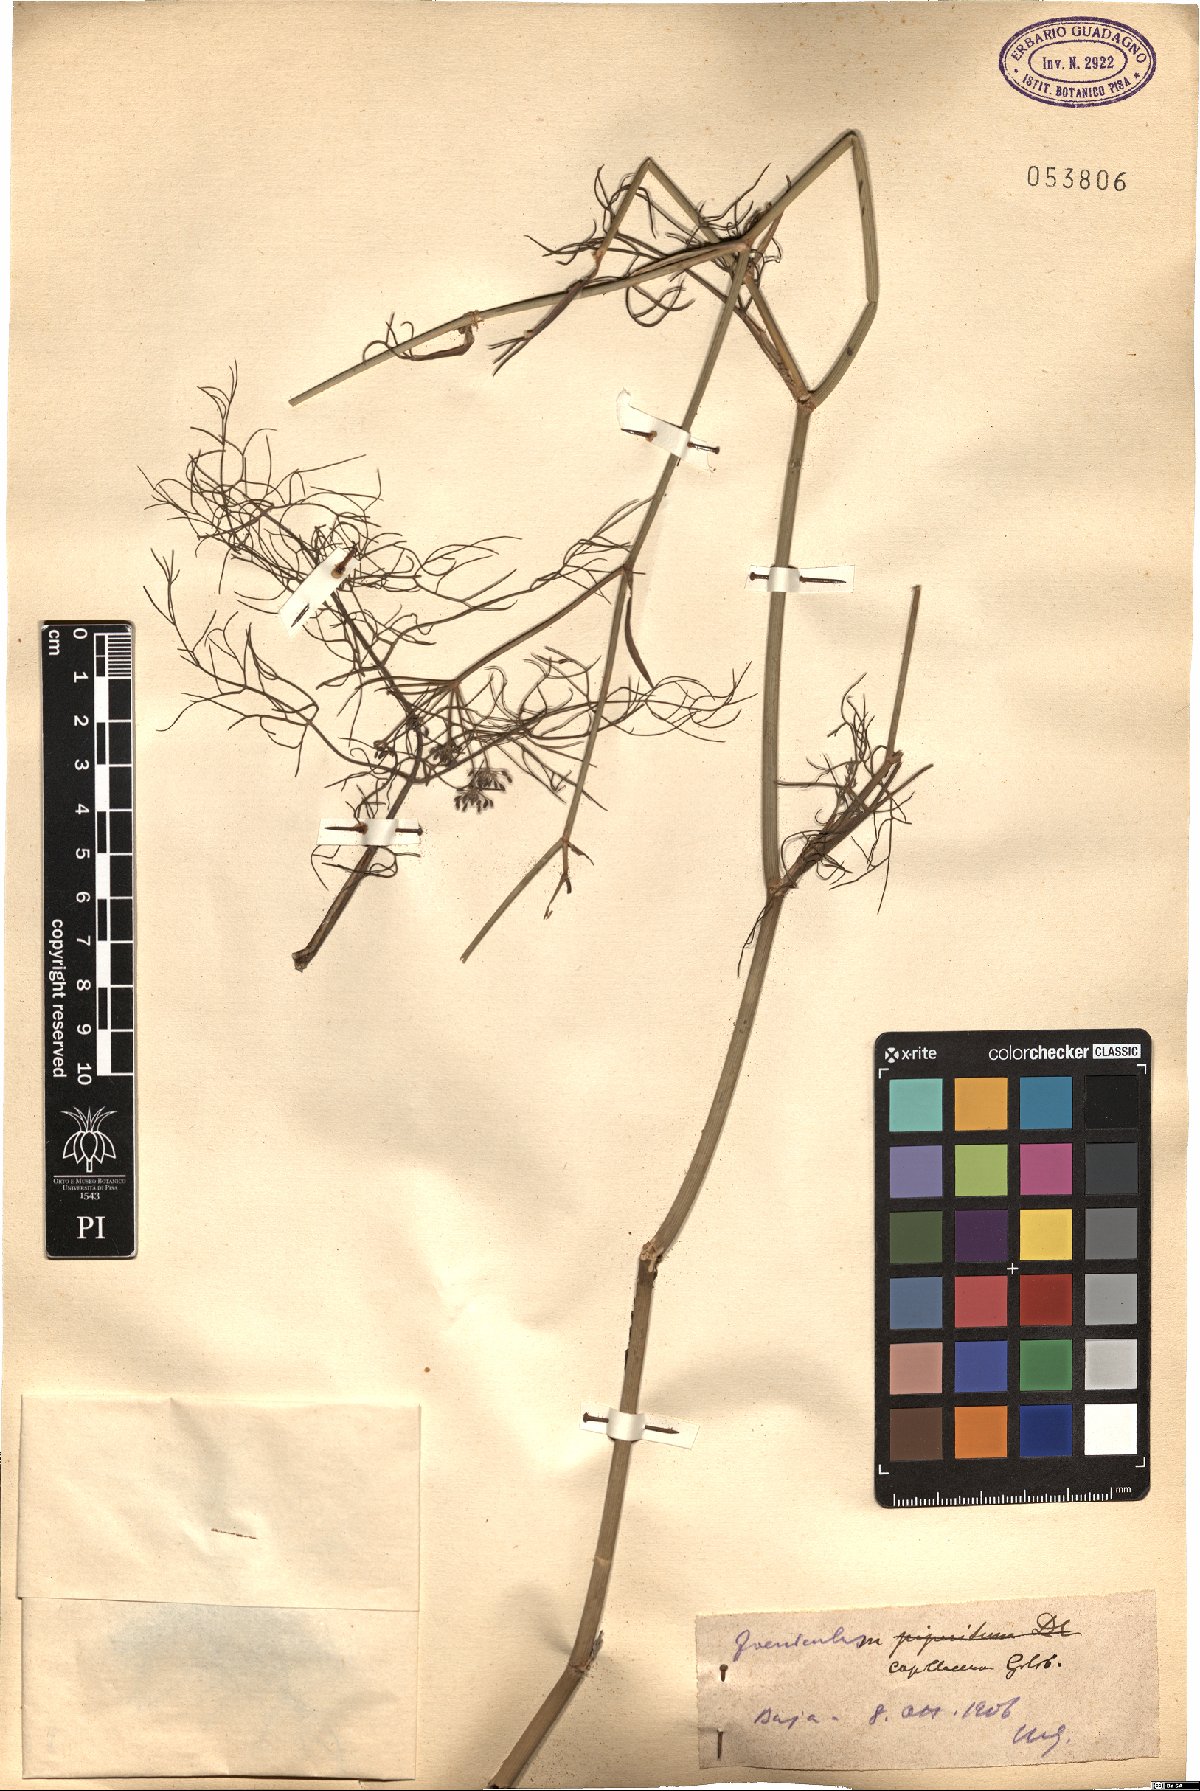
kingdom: Plantae
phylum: Tracheophyta
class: Magnoliopsida
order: Apiales
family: Apiaceae
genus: Foeniculum
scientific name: Foeniculum vulgare
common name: Fennel
